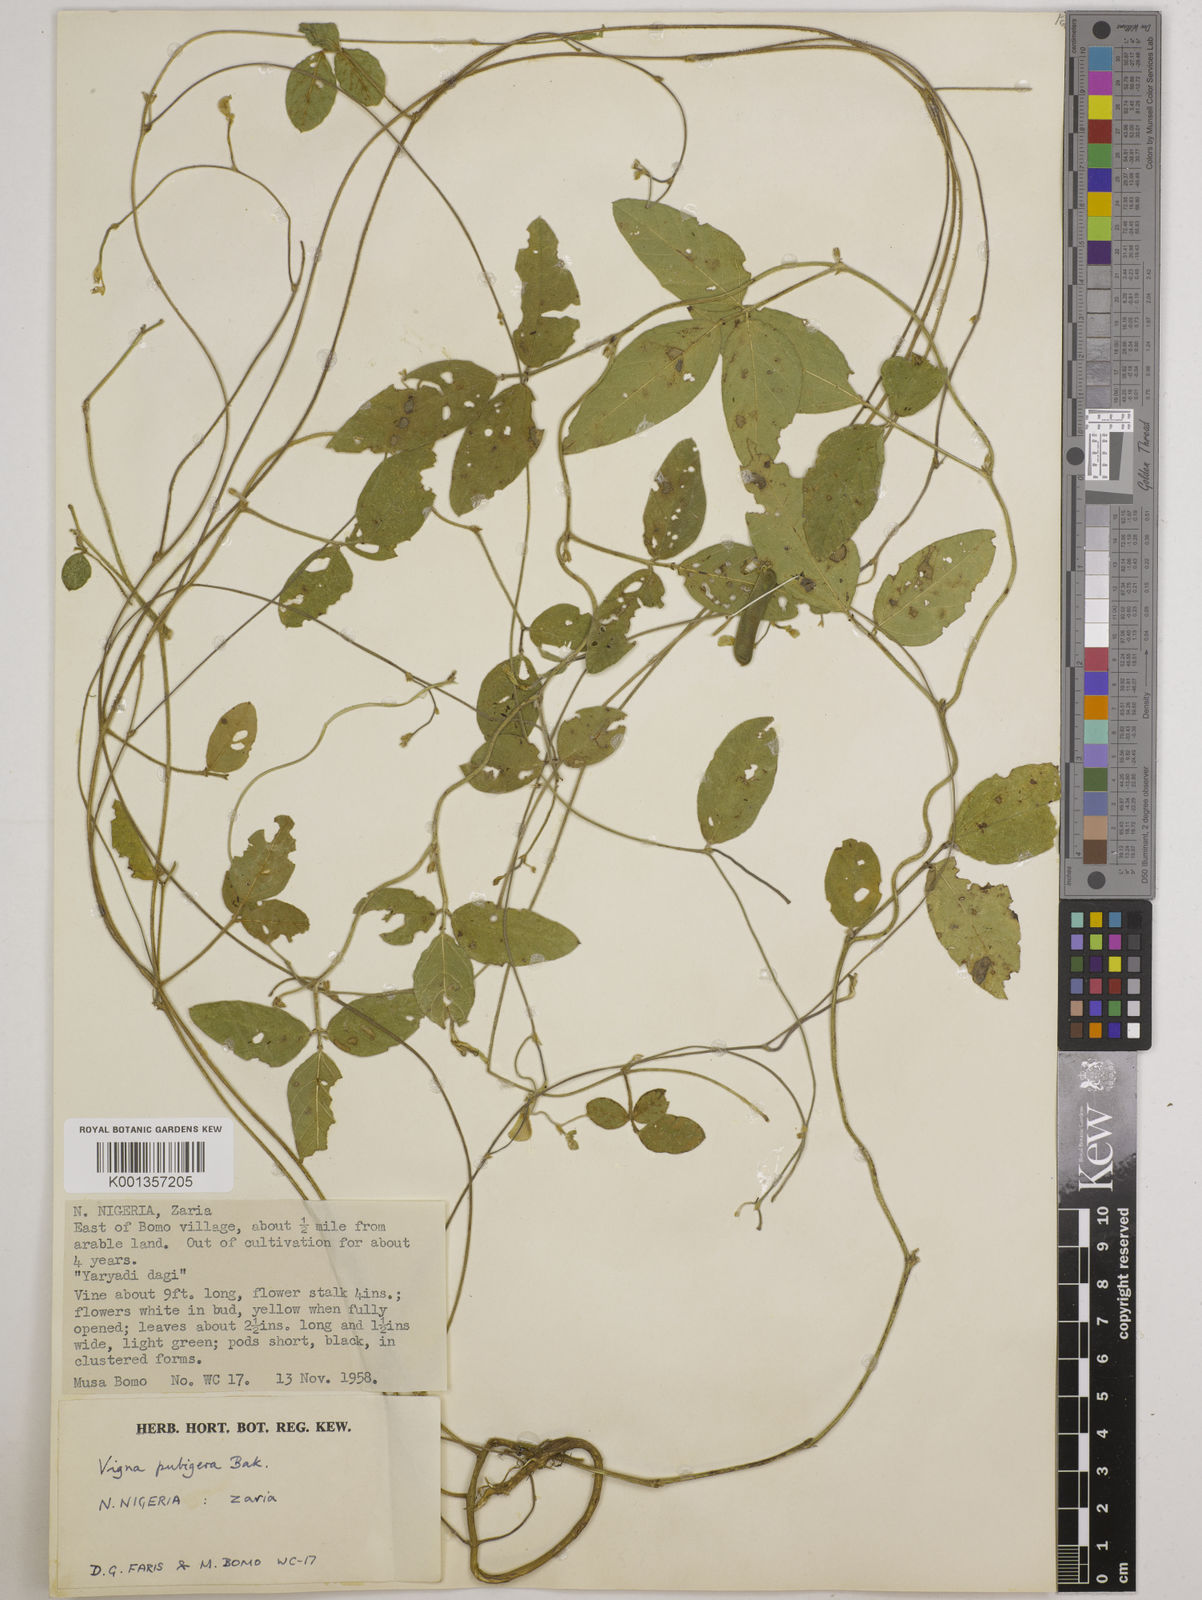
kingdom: Plantae
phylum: Tracheophyta
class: Magnoliopsida
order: Fabales
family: Fabaceae
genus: Vigna
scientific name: Vigna ambacensis
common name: Tsarkiyan zomo
